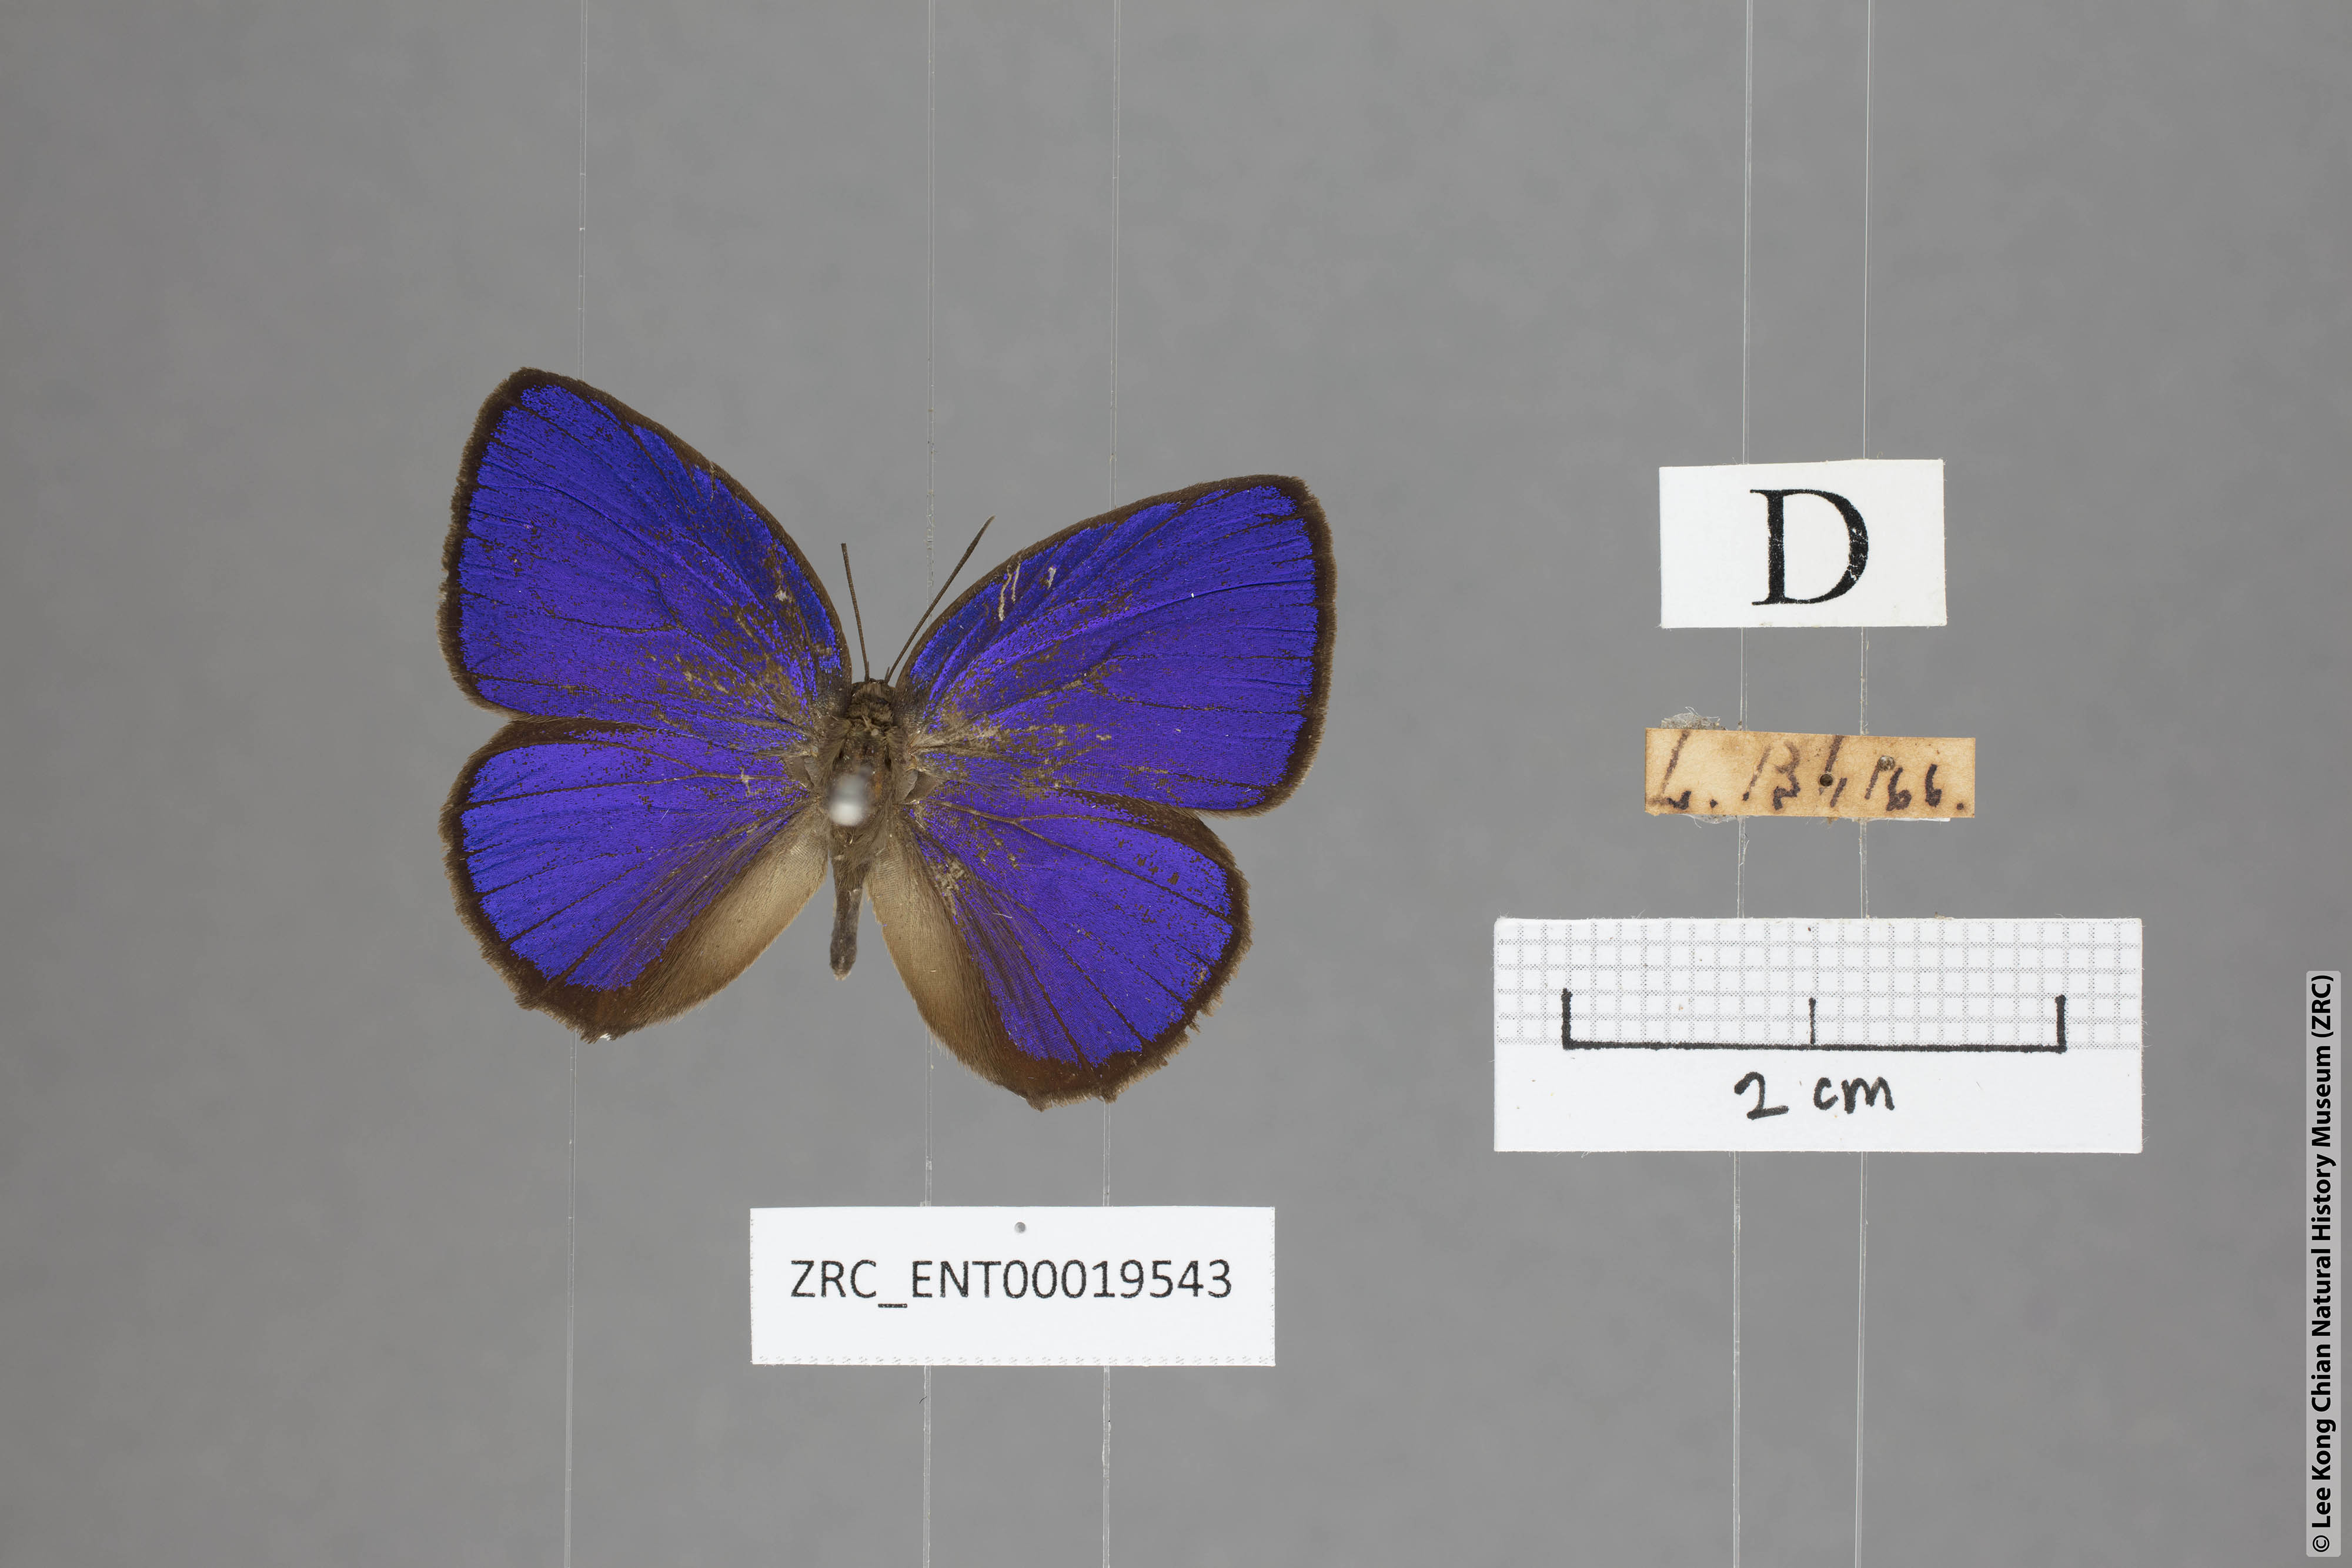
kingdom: Animalia
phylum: Arthropoda
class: Insecta
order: Lepidoptera
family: Lycaenidae
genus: Arhopala
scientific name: Arhopala hypomuta
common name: Violet oakblue
